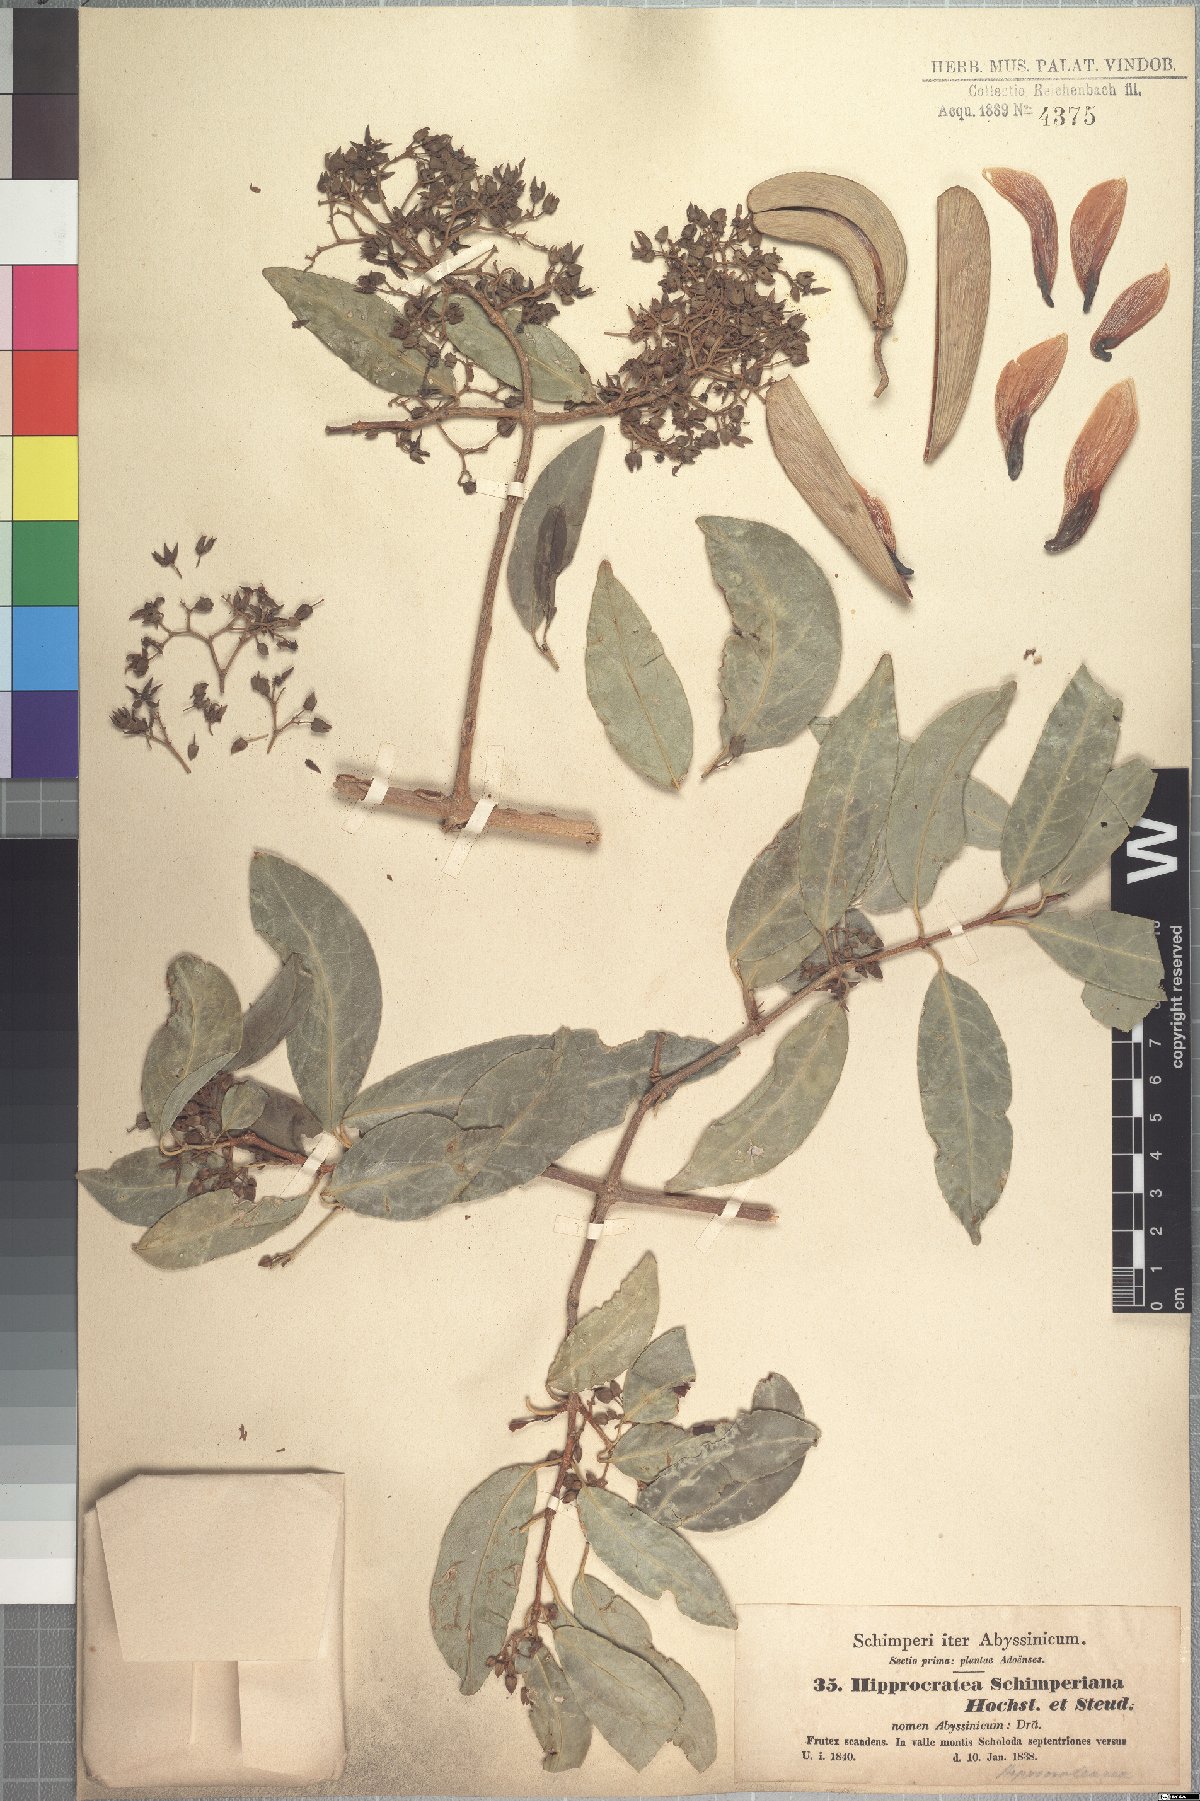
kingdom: Plantae
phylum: Tracheophyta
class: Magnoliopsida
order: Celastrales
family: Celastraceae
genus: Loeseneriella
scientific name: Loeseneriella africana
